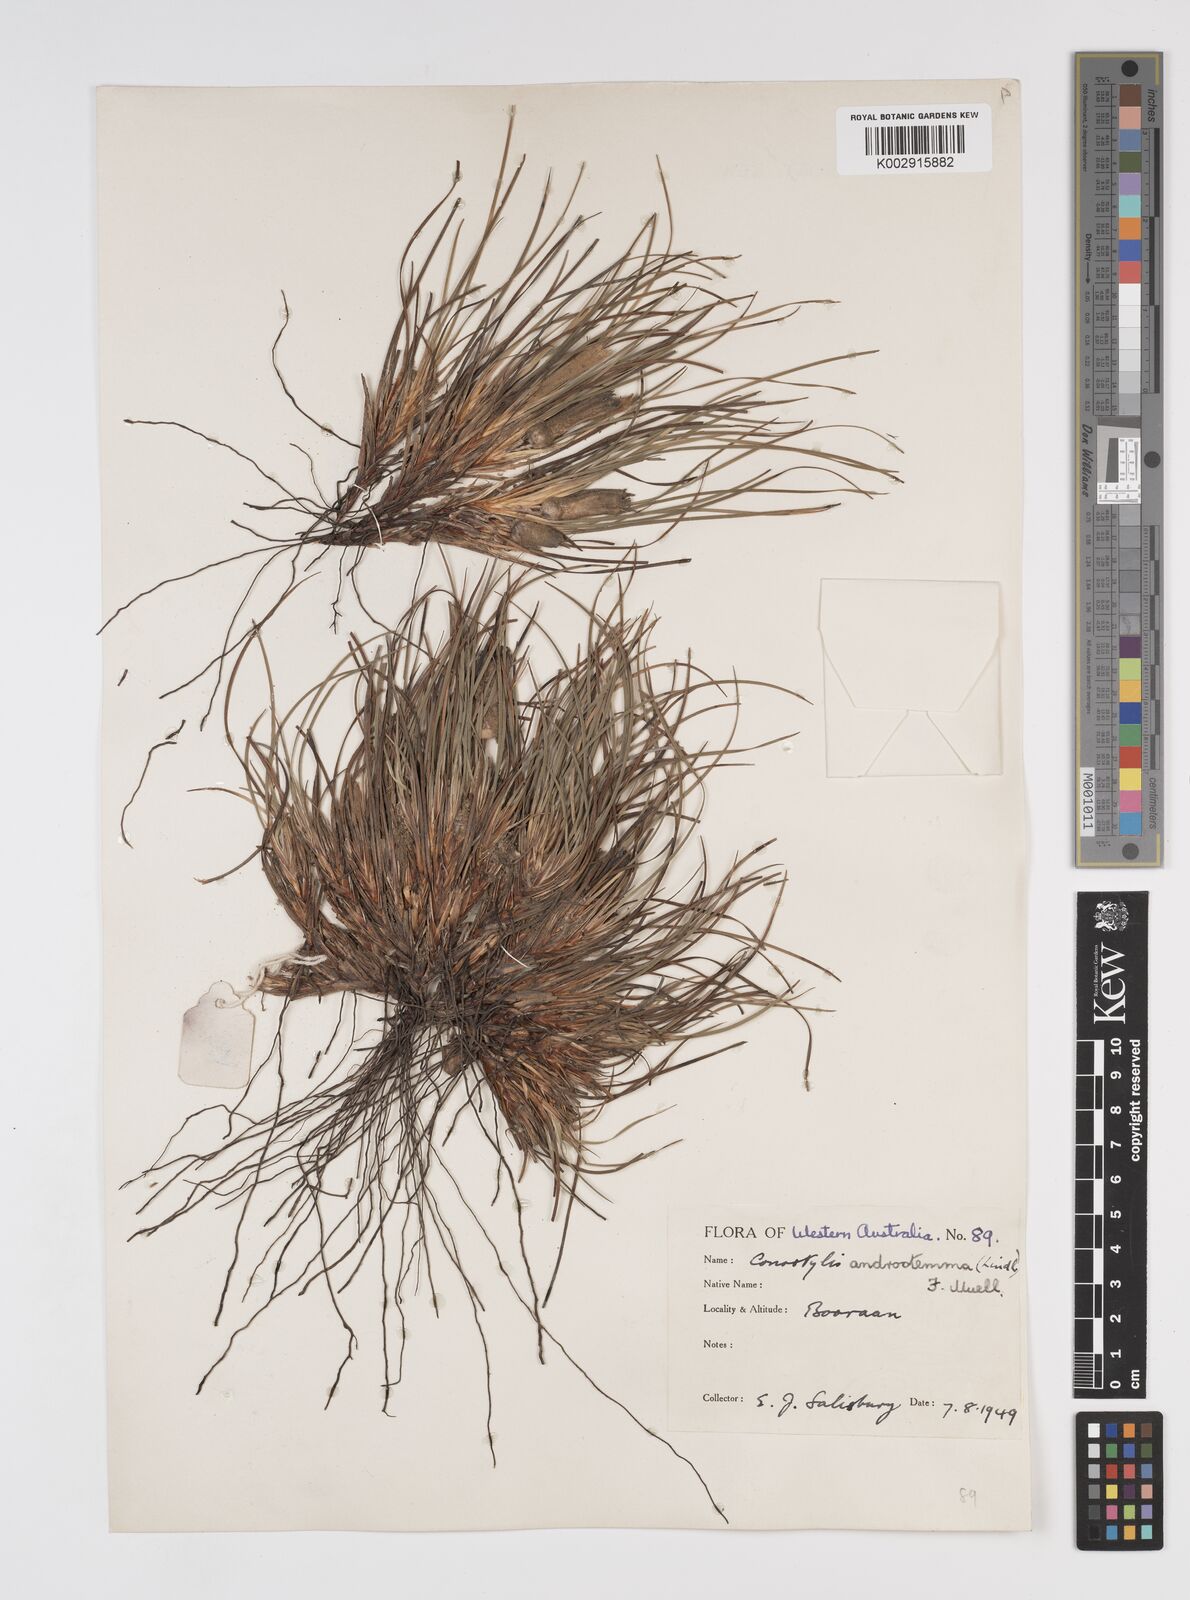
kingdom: Plantae
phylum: Tracheophyta
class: Liliopsida
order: Commelinales
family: Haemodoraceae
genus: Conostylis
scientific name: Conostylis androstemma
